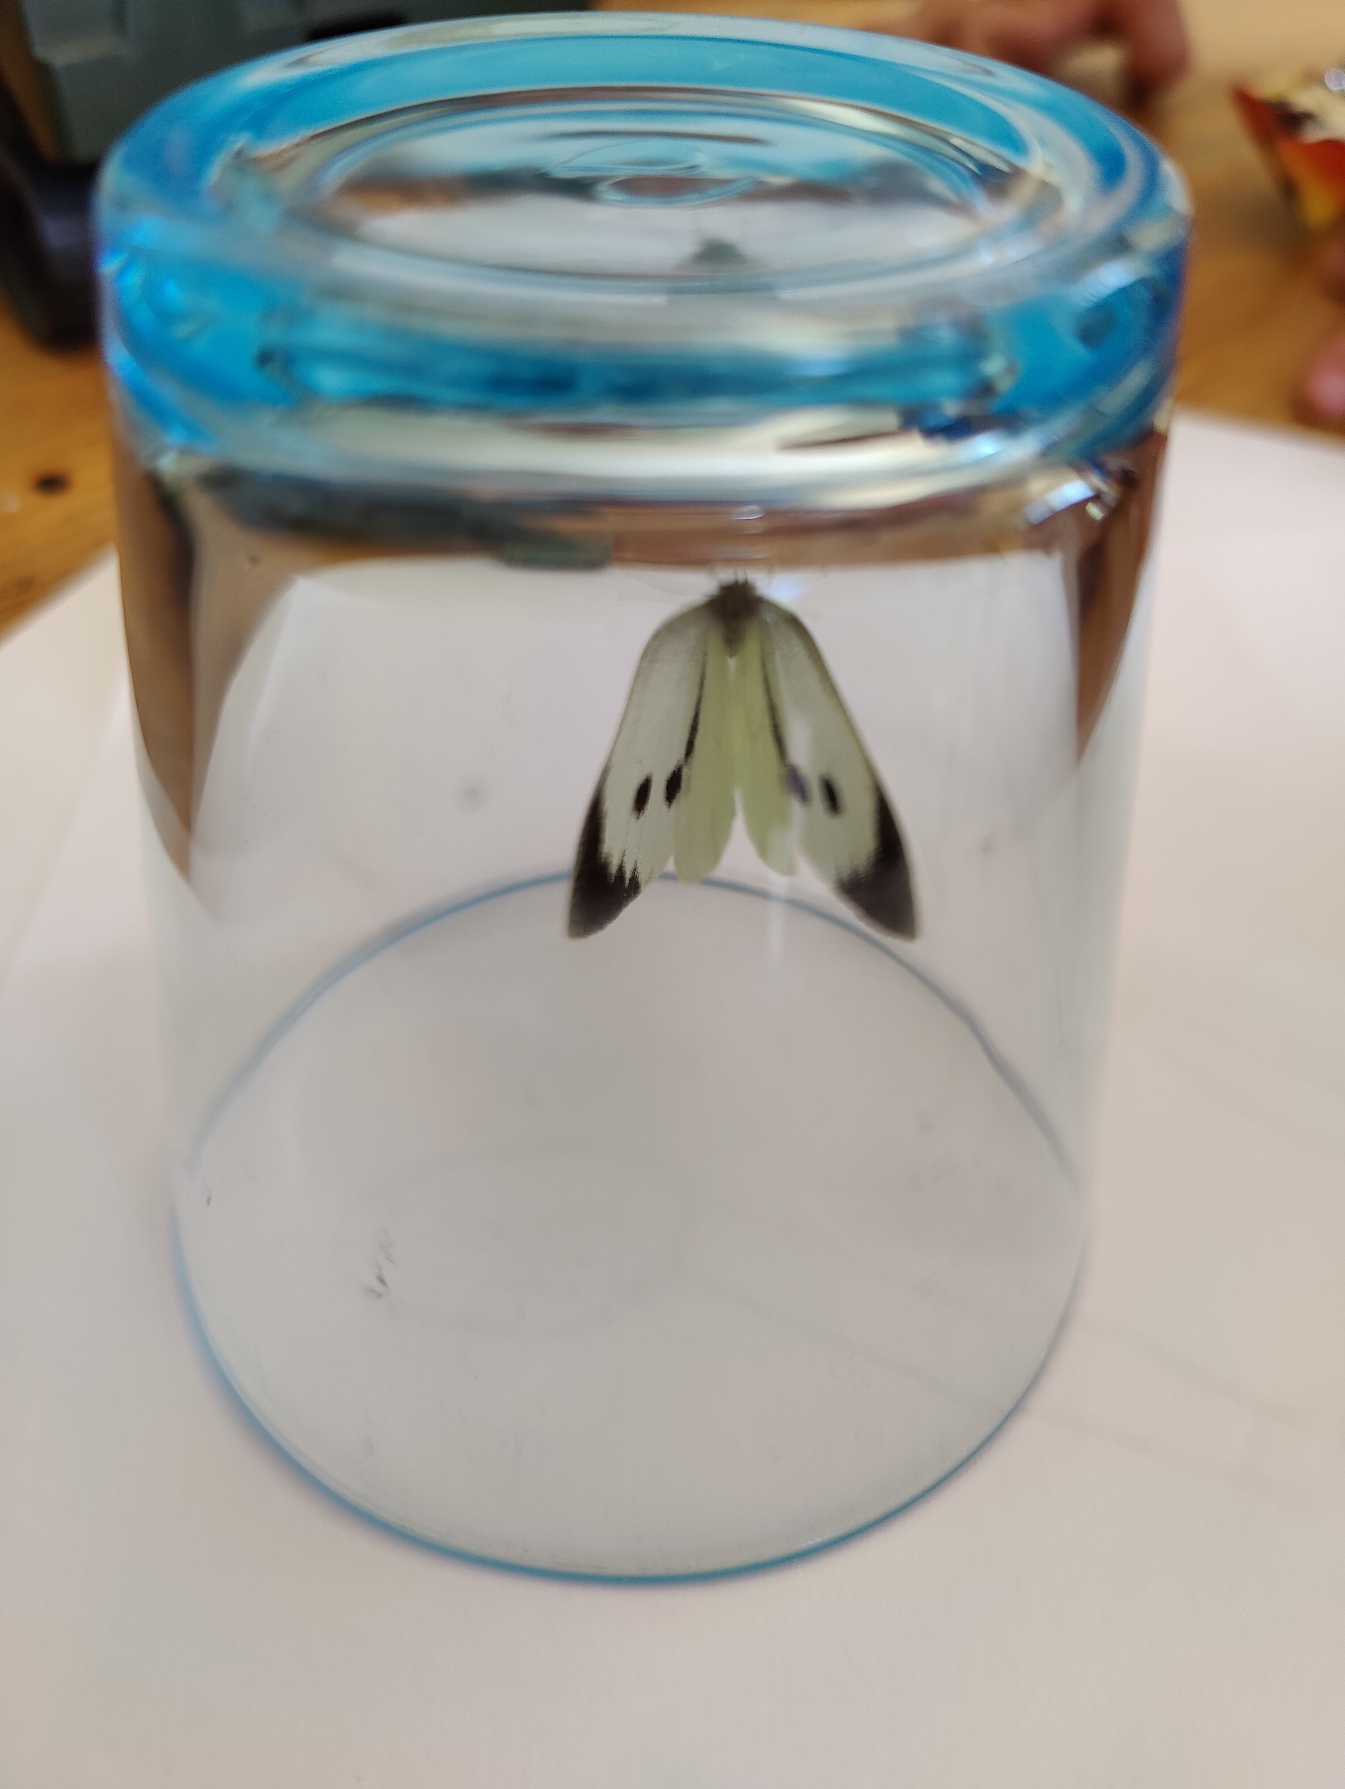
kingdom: Animalia
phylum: Arthropoda
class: Insecta
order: Lepidoptera
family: Pieridae
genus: Pieris
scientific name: Pieris brassicae
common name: Stor kålsommerfugl
